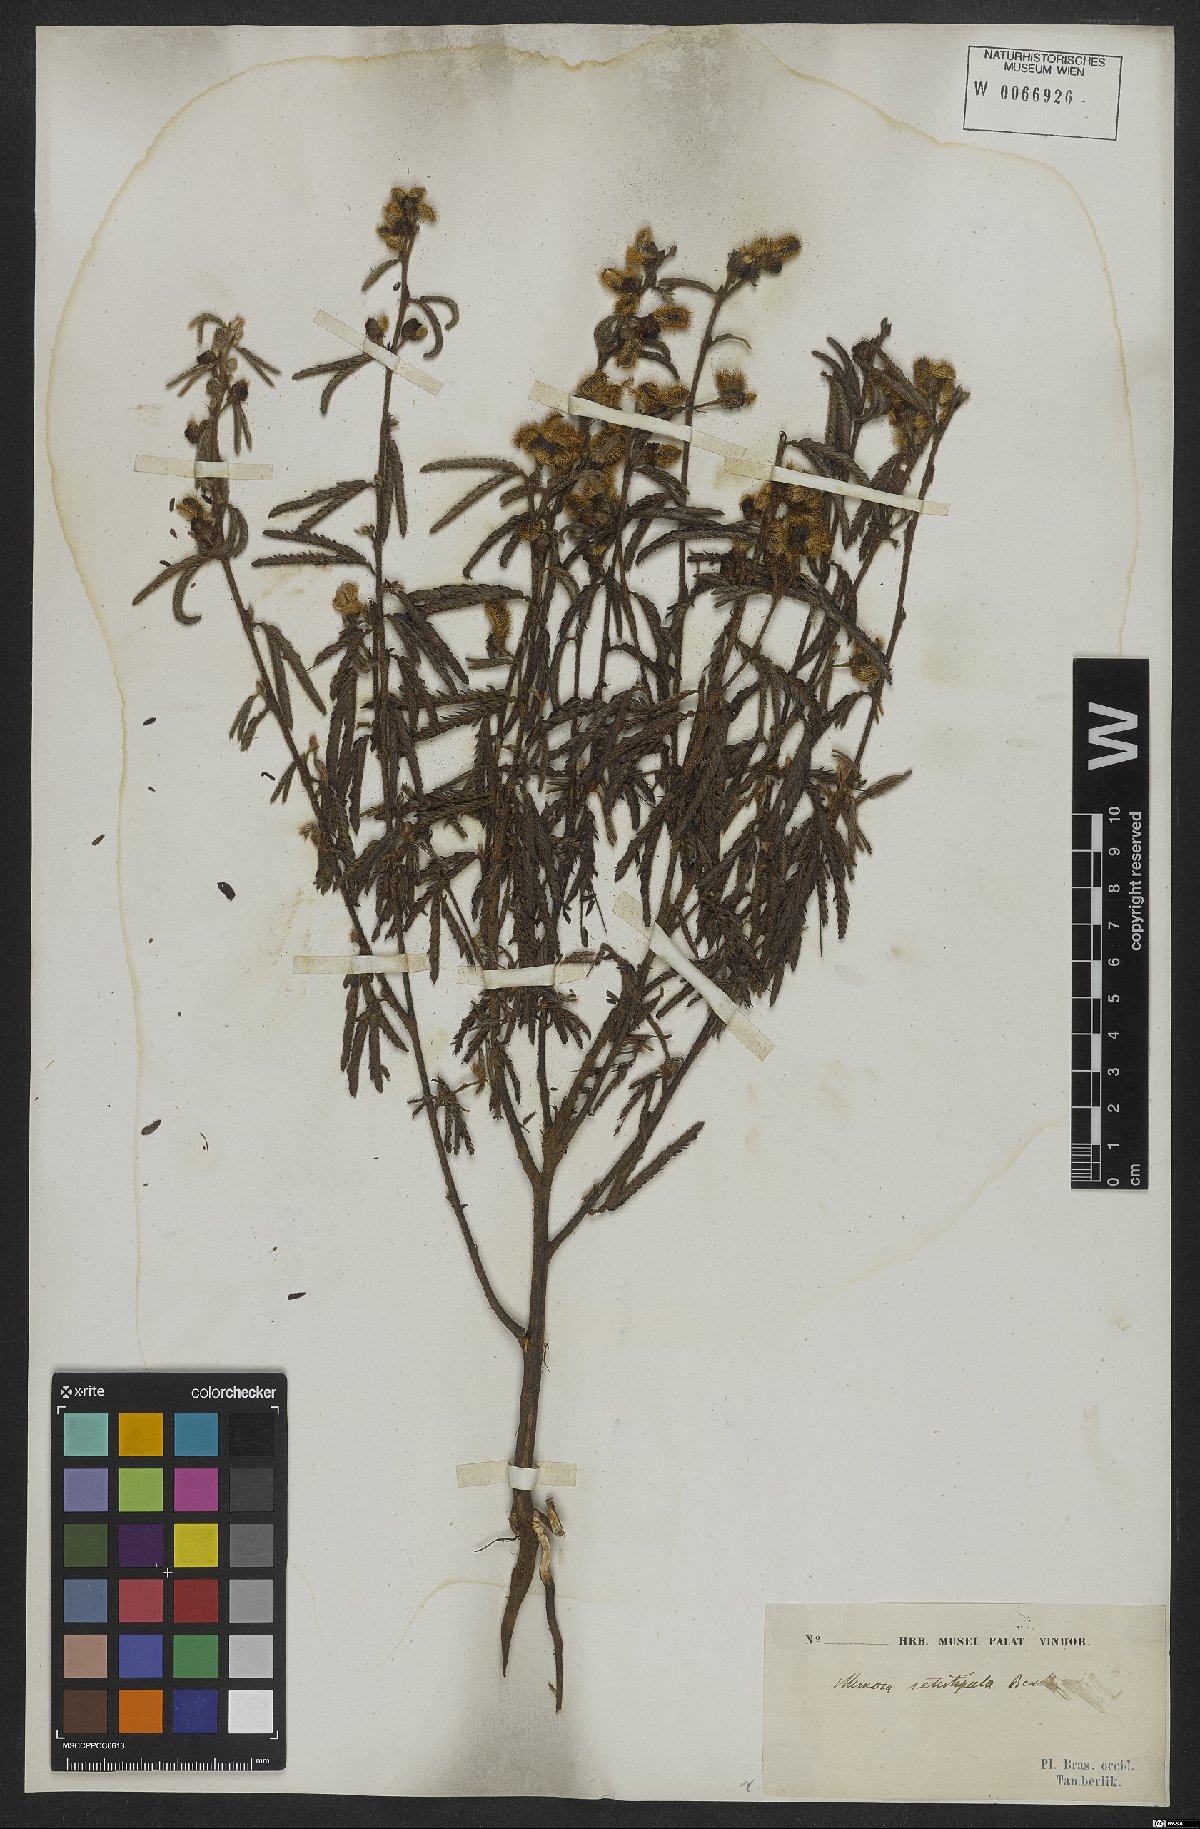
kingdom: Plantae
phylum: Tracheophyta
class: Magnoliopsida
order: Fabales
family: Fabaceae
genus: Mimosa
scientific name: Mimosa setistipula
